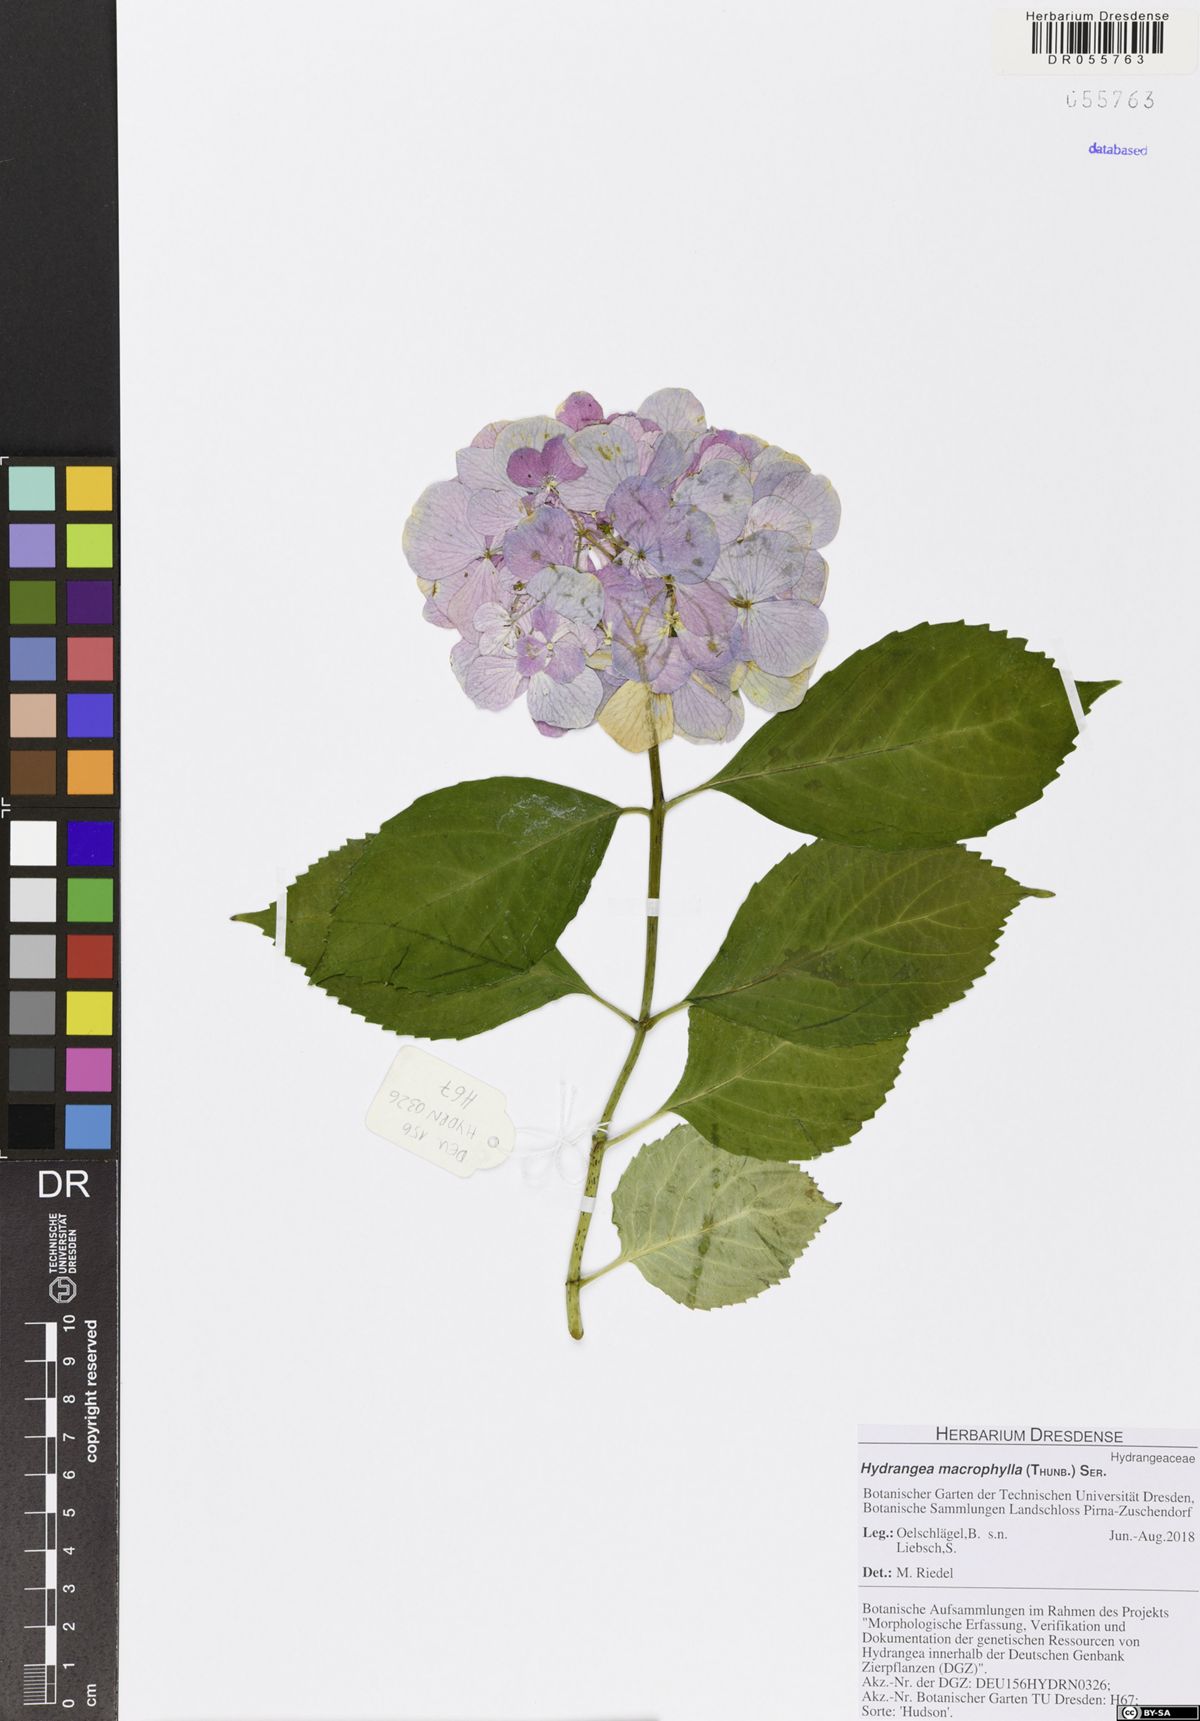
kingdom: Plantae
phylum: Tracheophyta
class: Magnoliopsida
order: Cornales
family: Hydrangeaceae
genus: Hydrangea
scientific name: Hydrangea macrophylla
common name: Hydrangea
